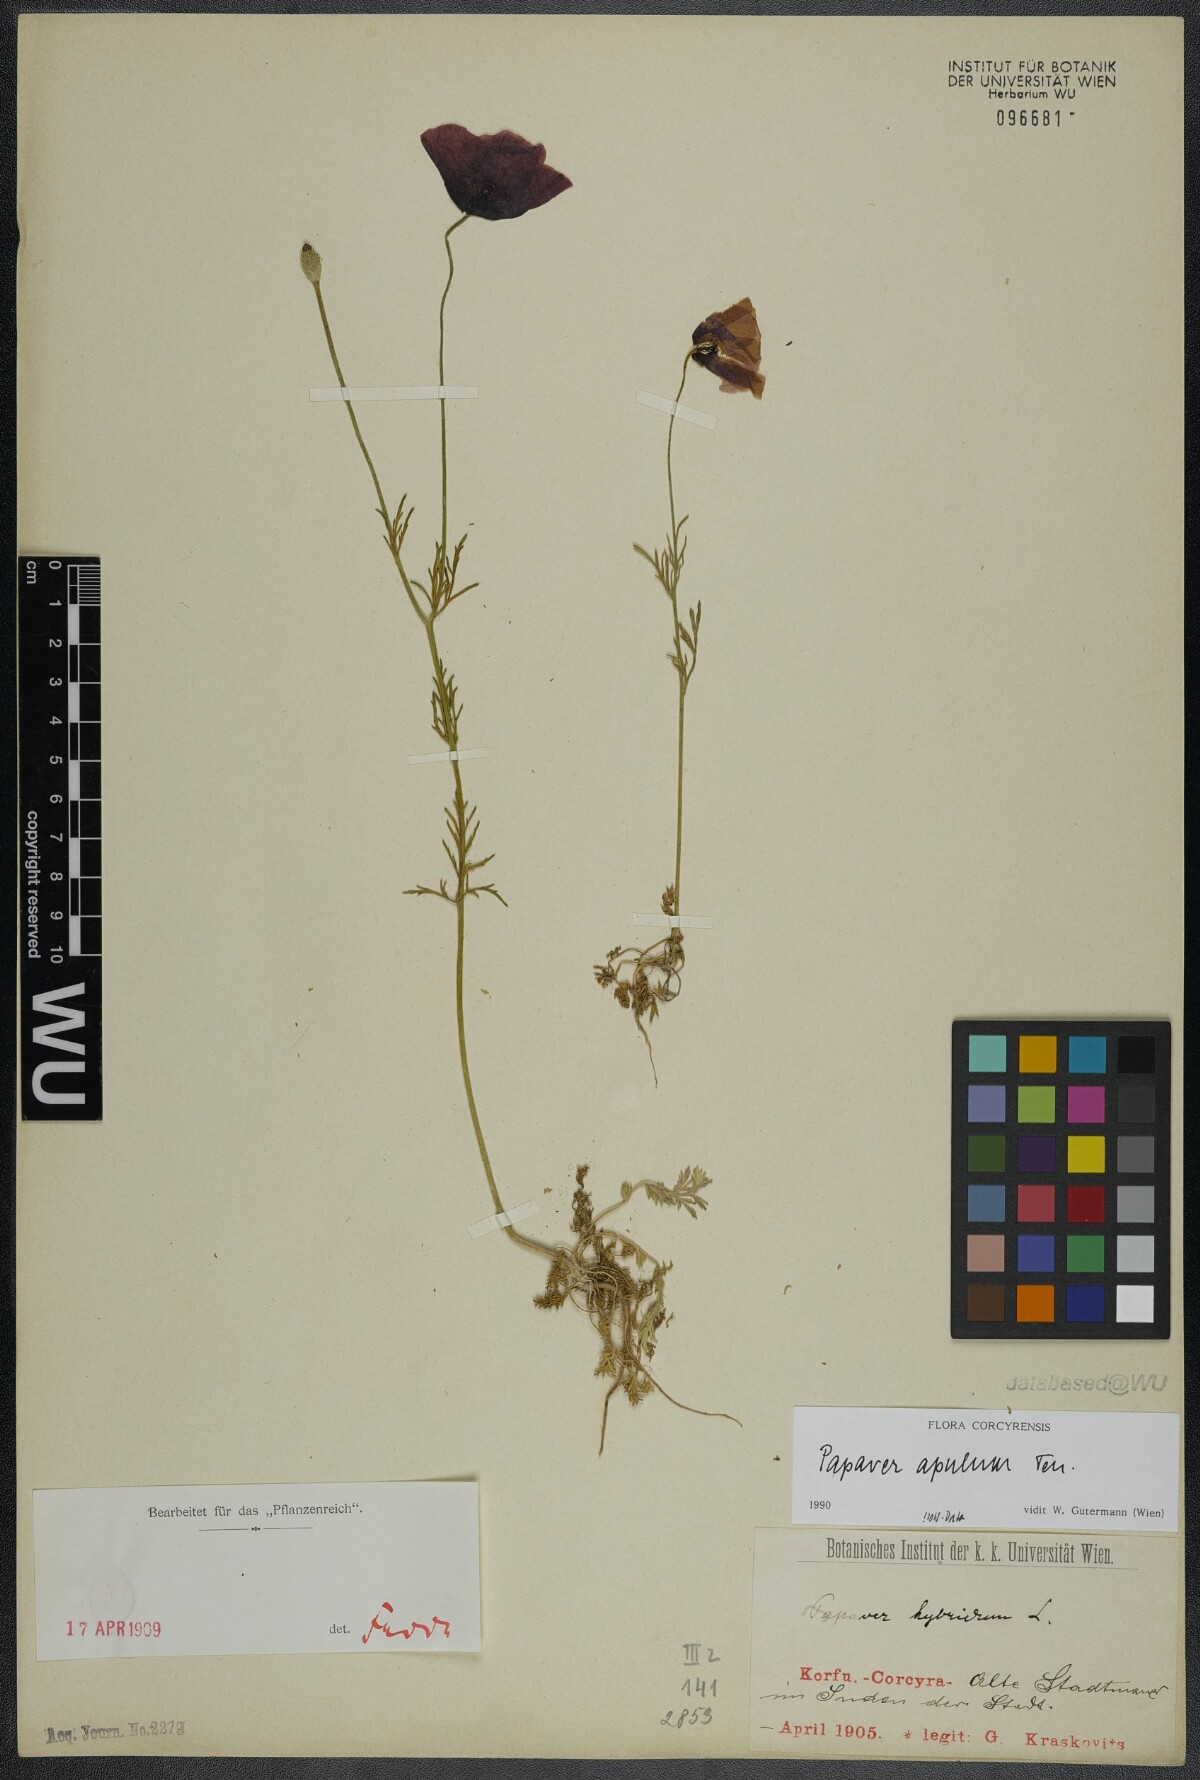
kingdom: Plantae
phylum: Tracheophyta
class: Magnoliopsida
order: Ranunculales
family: Papaveraceae
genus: Roemeria
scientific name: Roemeria apula
